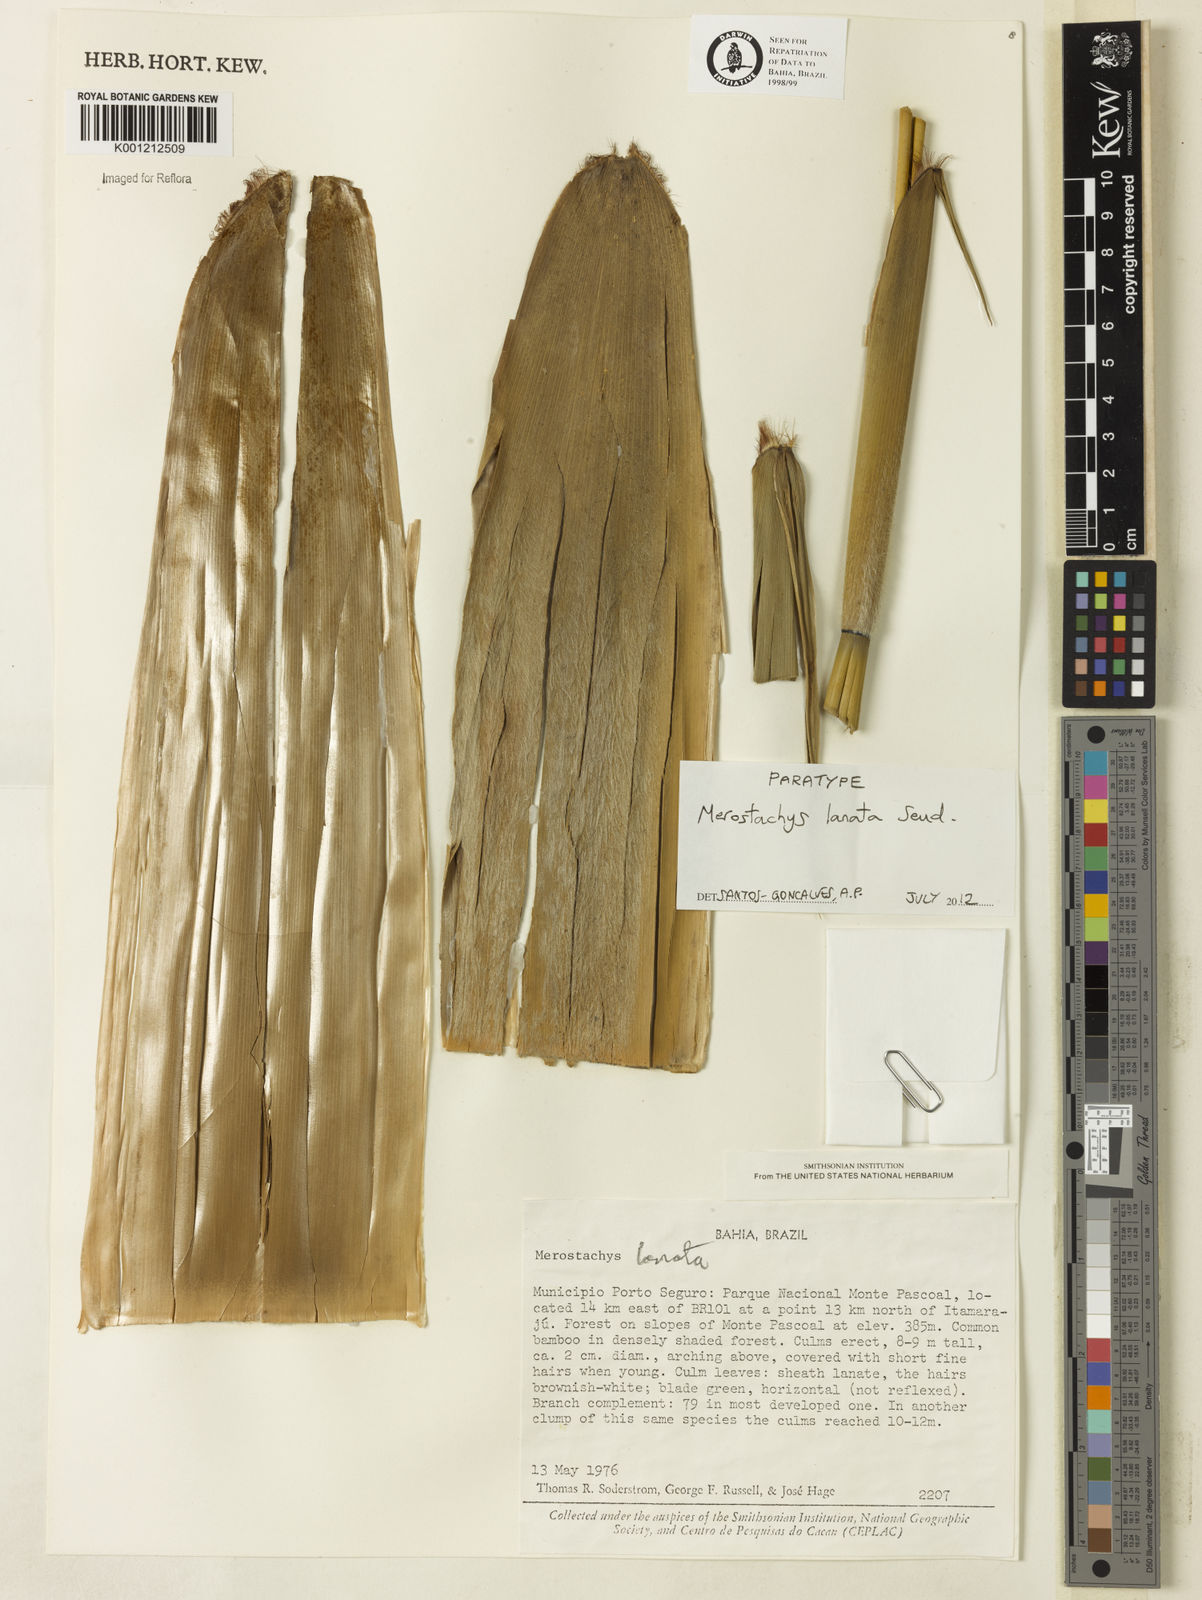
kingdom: Plantae
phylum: Tracheophyta
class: Liliopsida
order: Poales
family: Poaceae
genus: Merostachys
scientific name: Merostachys lanata
